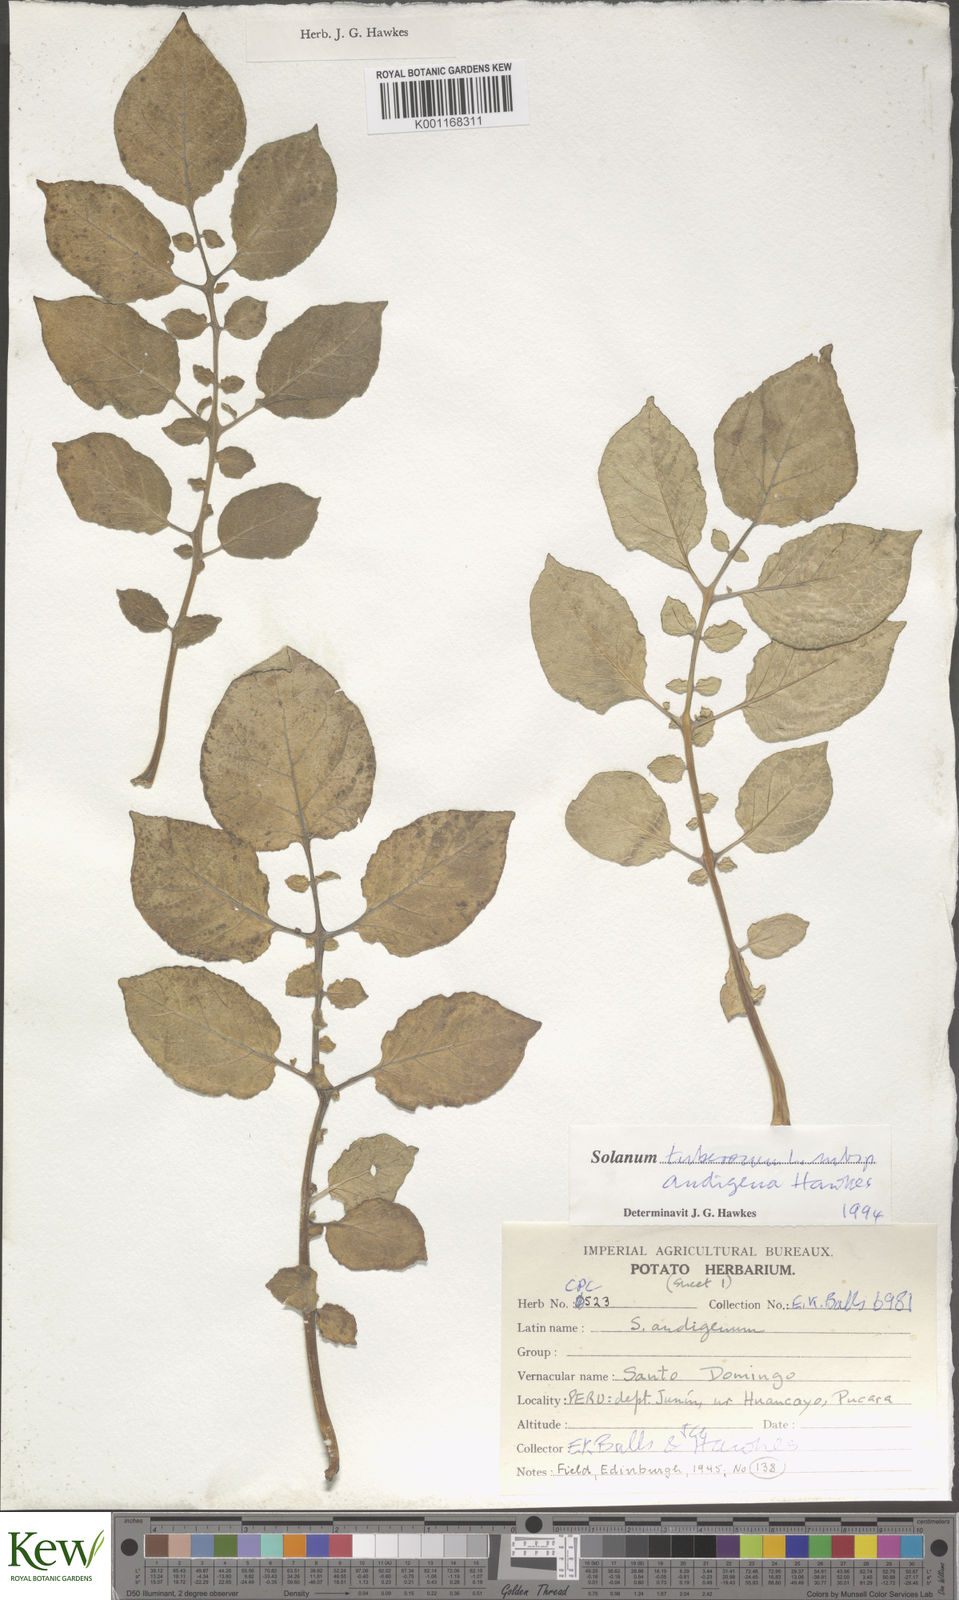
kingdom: Plantae
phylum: Tracheophyta
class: Magnoliopsida
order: Solanales
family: Solanaceae
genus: Solanum
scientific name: Solanum tuberosum
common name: Potato
